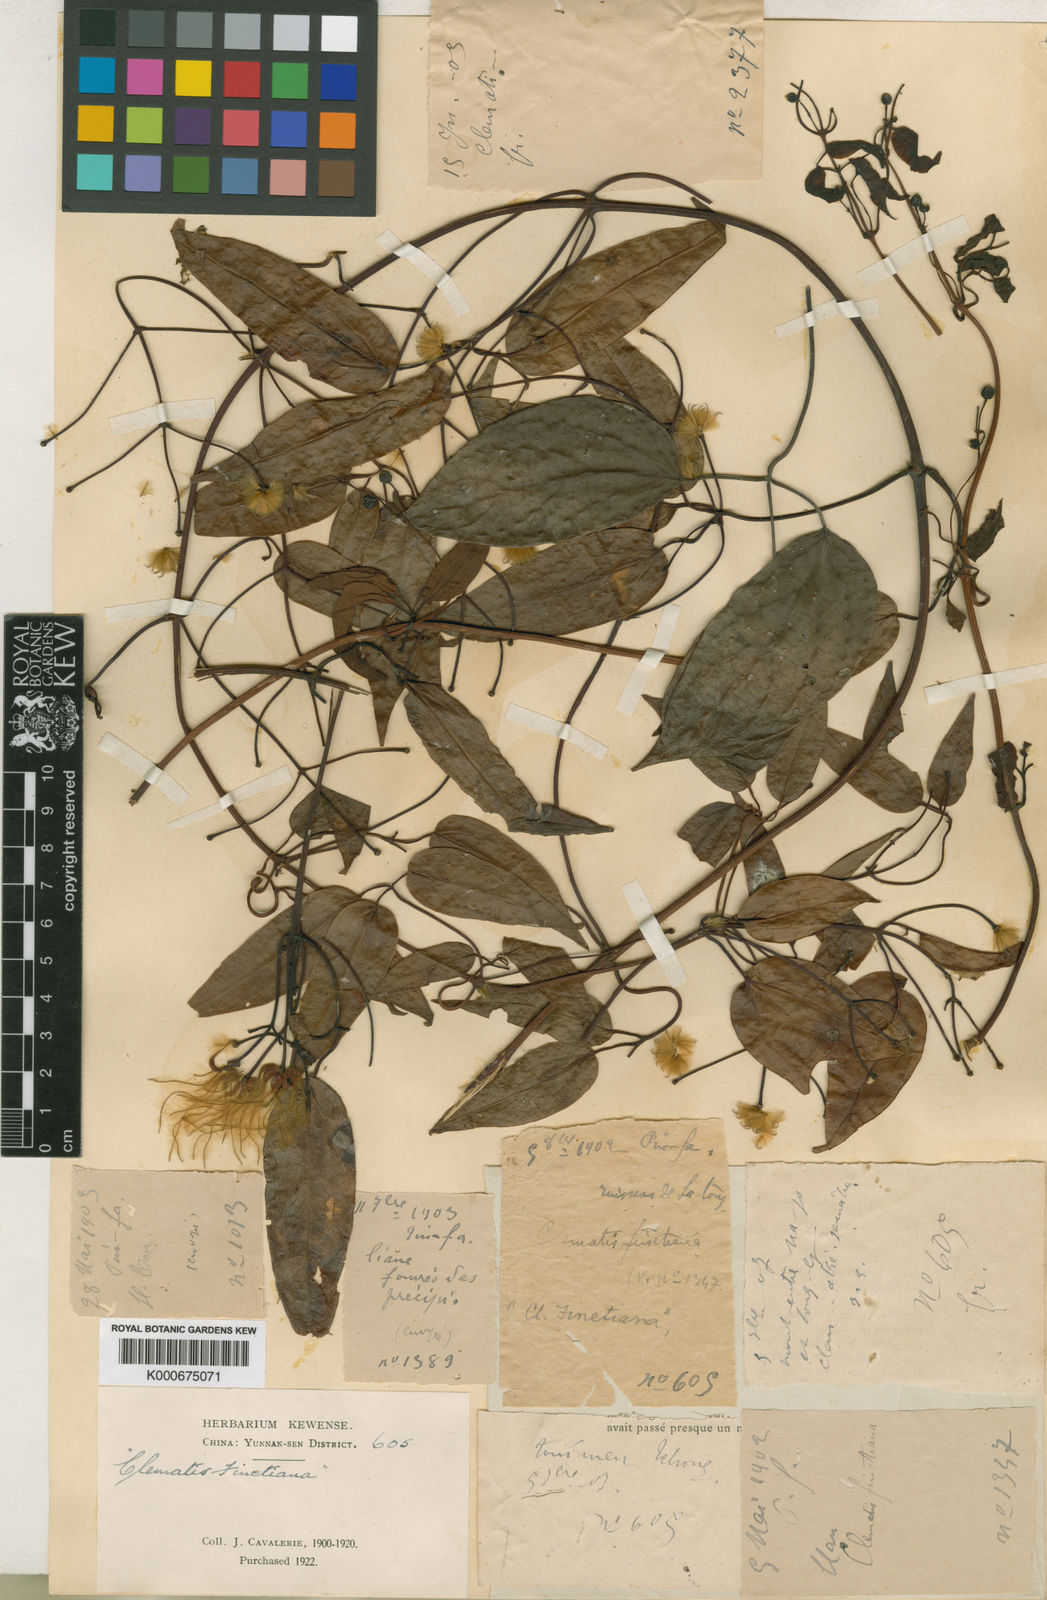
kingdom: Plantae
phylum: Tracheophyta
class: Magnoliopsida
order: Ranunculales
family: Ranunculaceae
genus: Clematis
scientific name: Clematis
